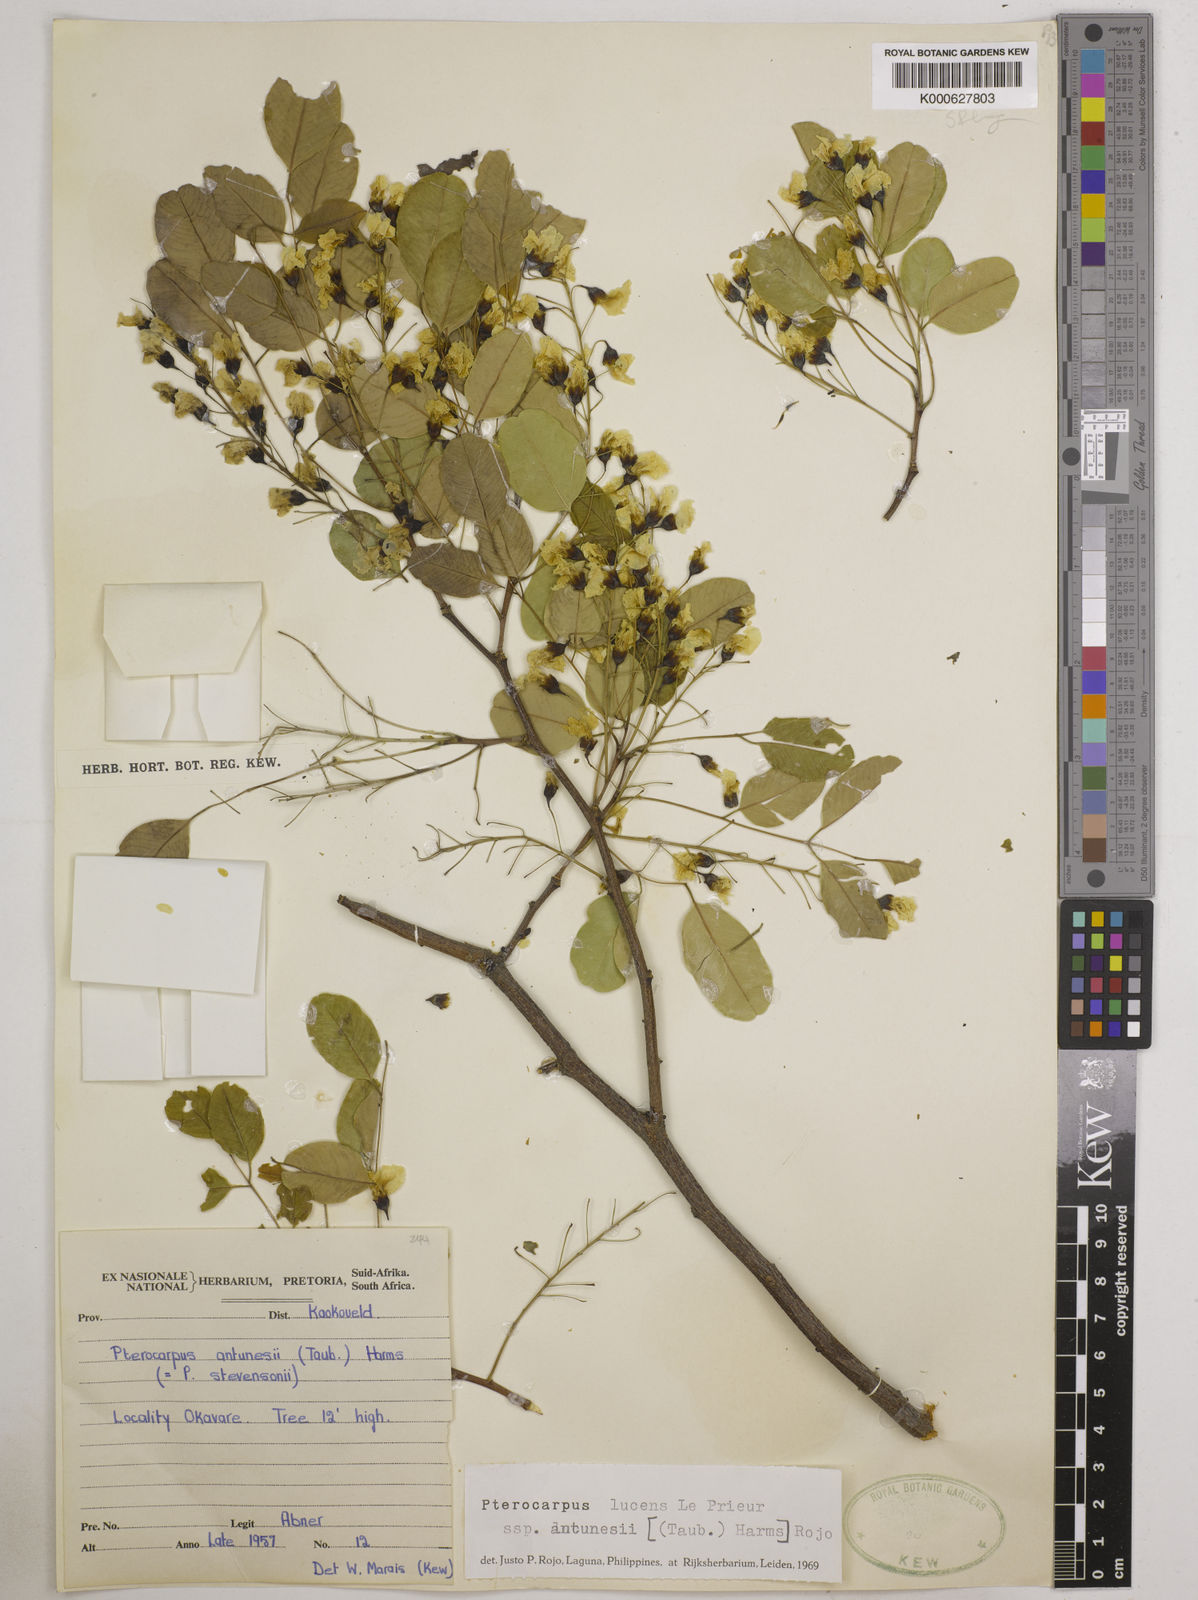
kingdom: Plantae
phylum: Tracheophyta
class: Magnoliopsida
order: Fabales
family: Fabaceae
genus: Pterocarpus
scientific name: Pterocarpus lucens
